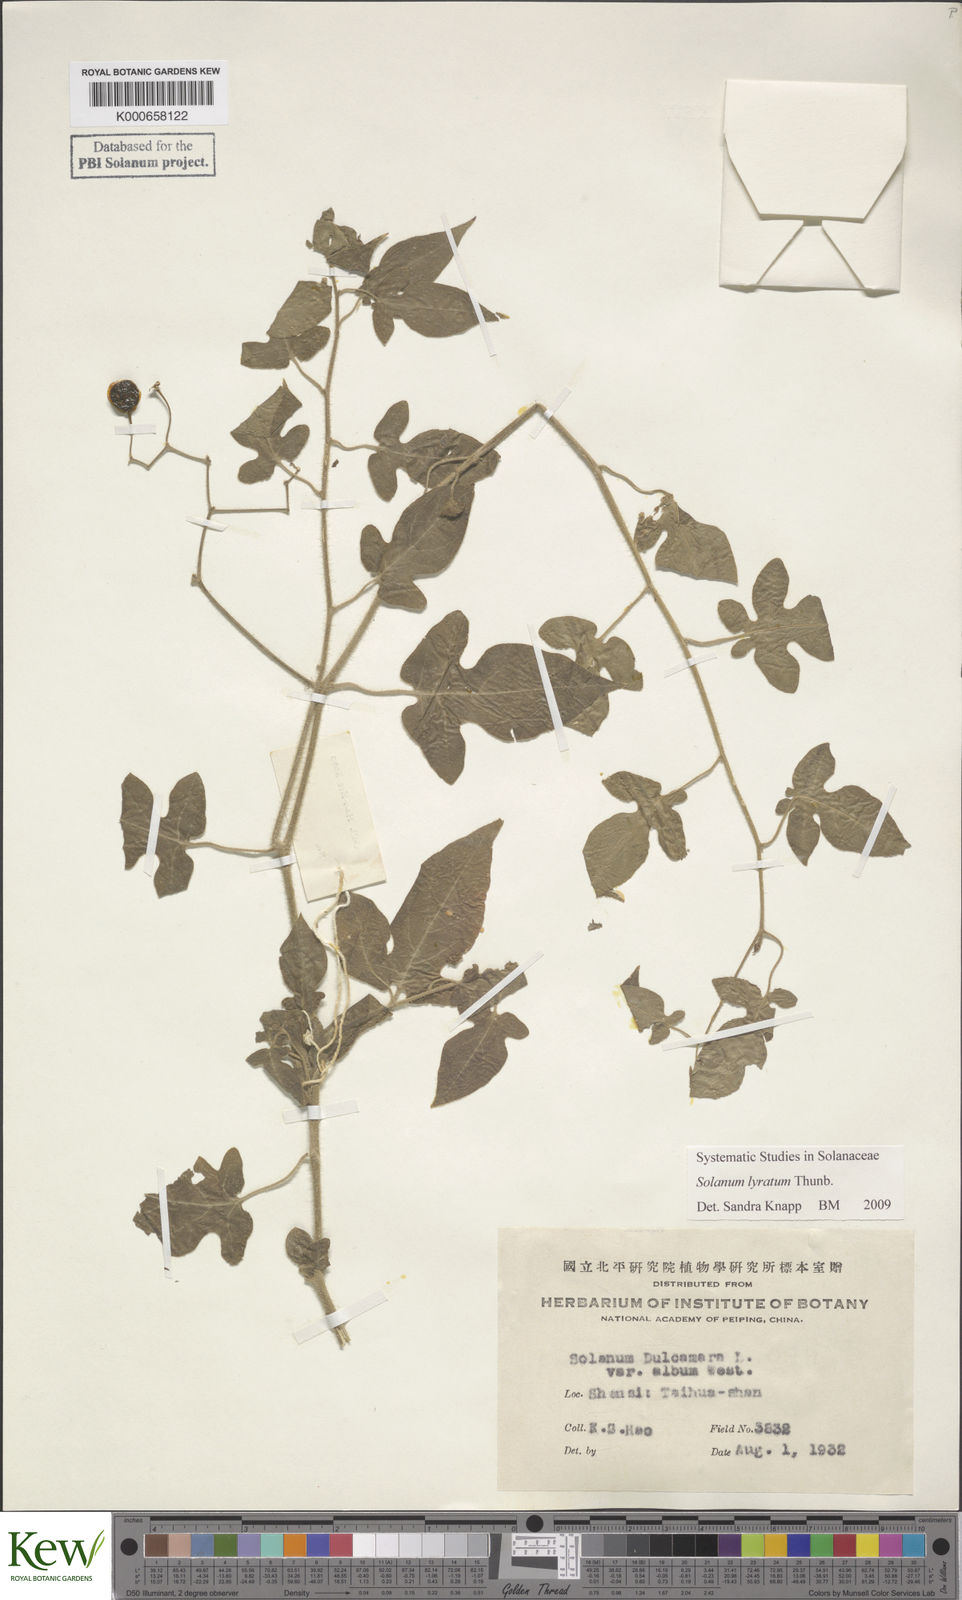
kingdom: Plantae
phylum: Tracheophyta
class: Magnoliopsida
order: Solanales
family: Solanaceae
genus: Solanum
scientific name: Solanum lyratum
